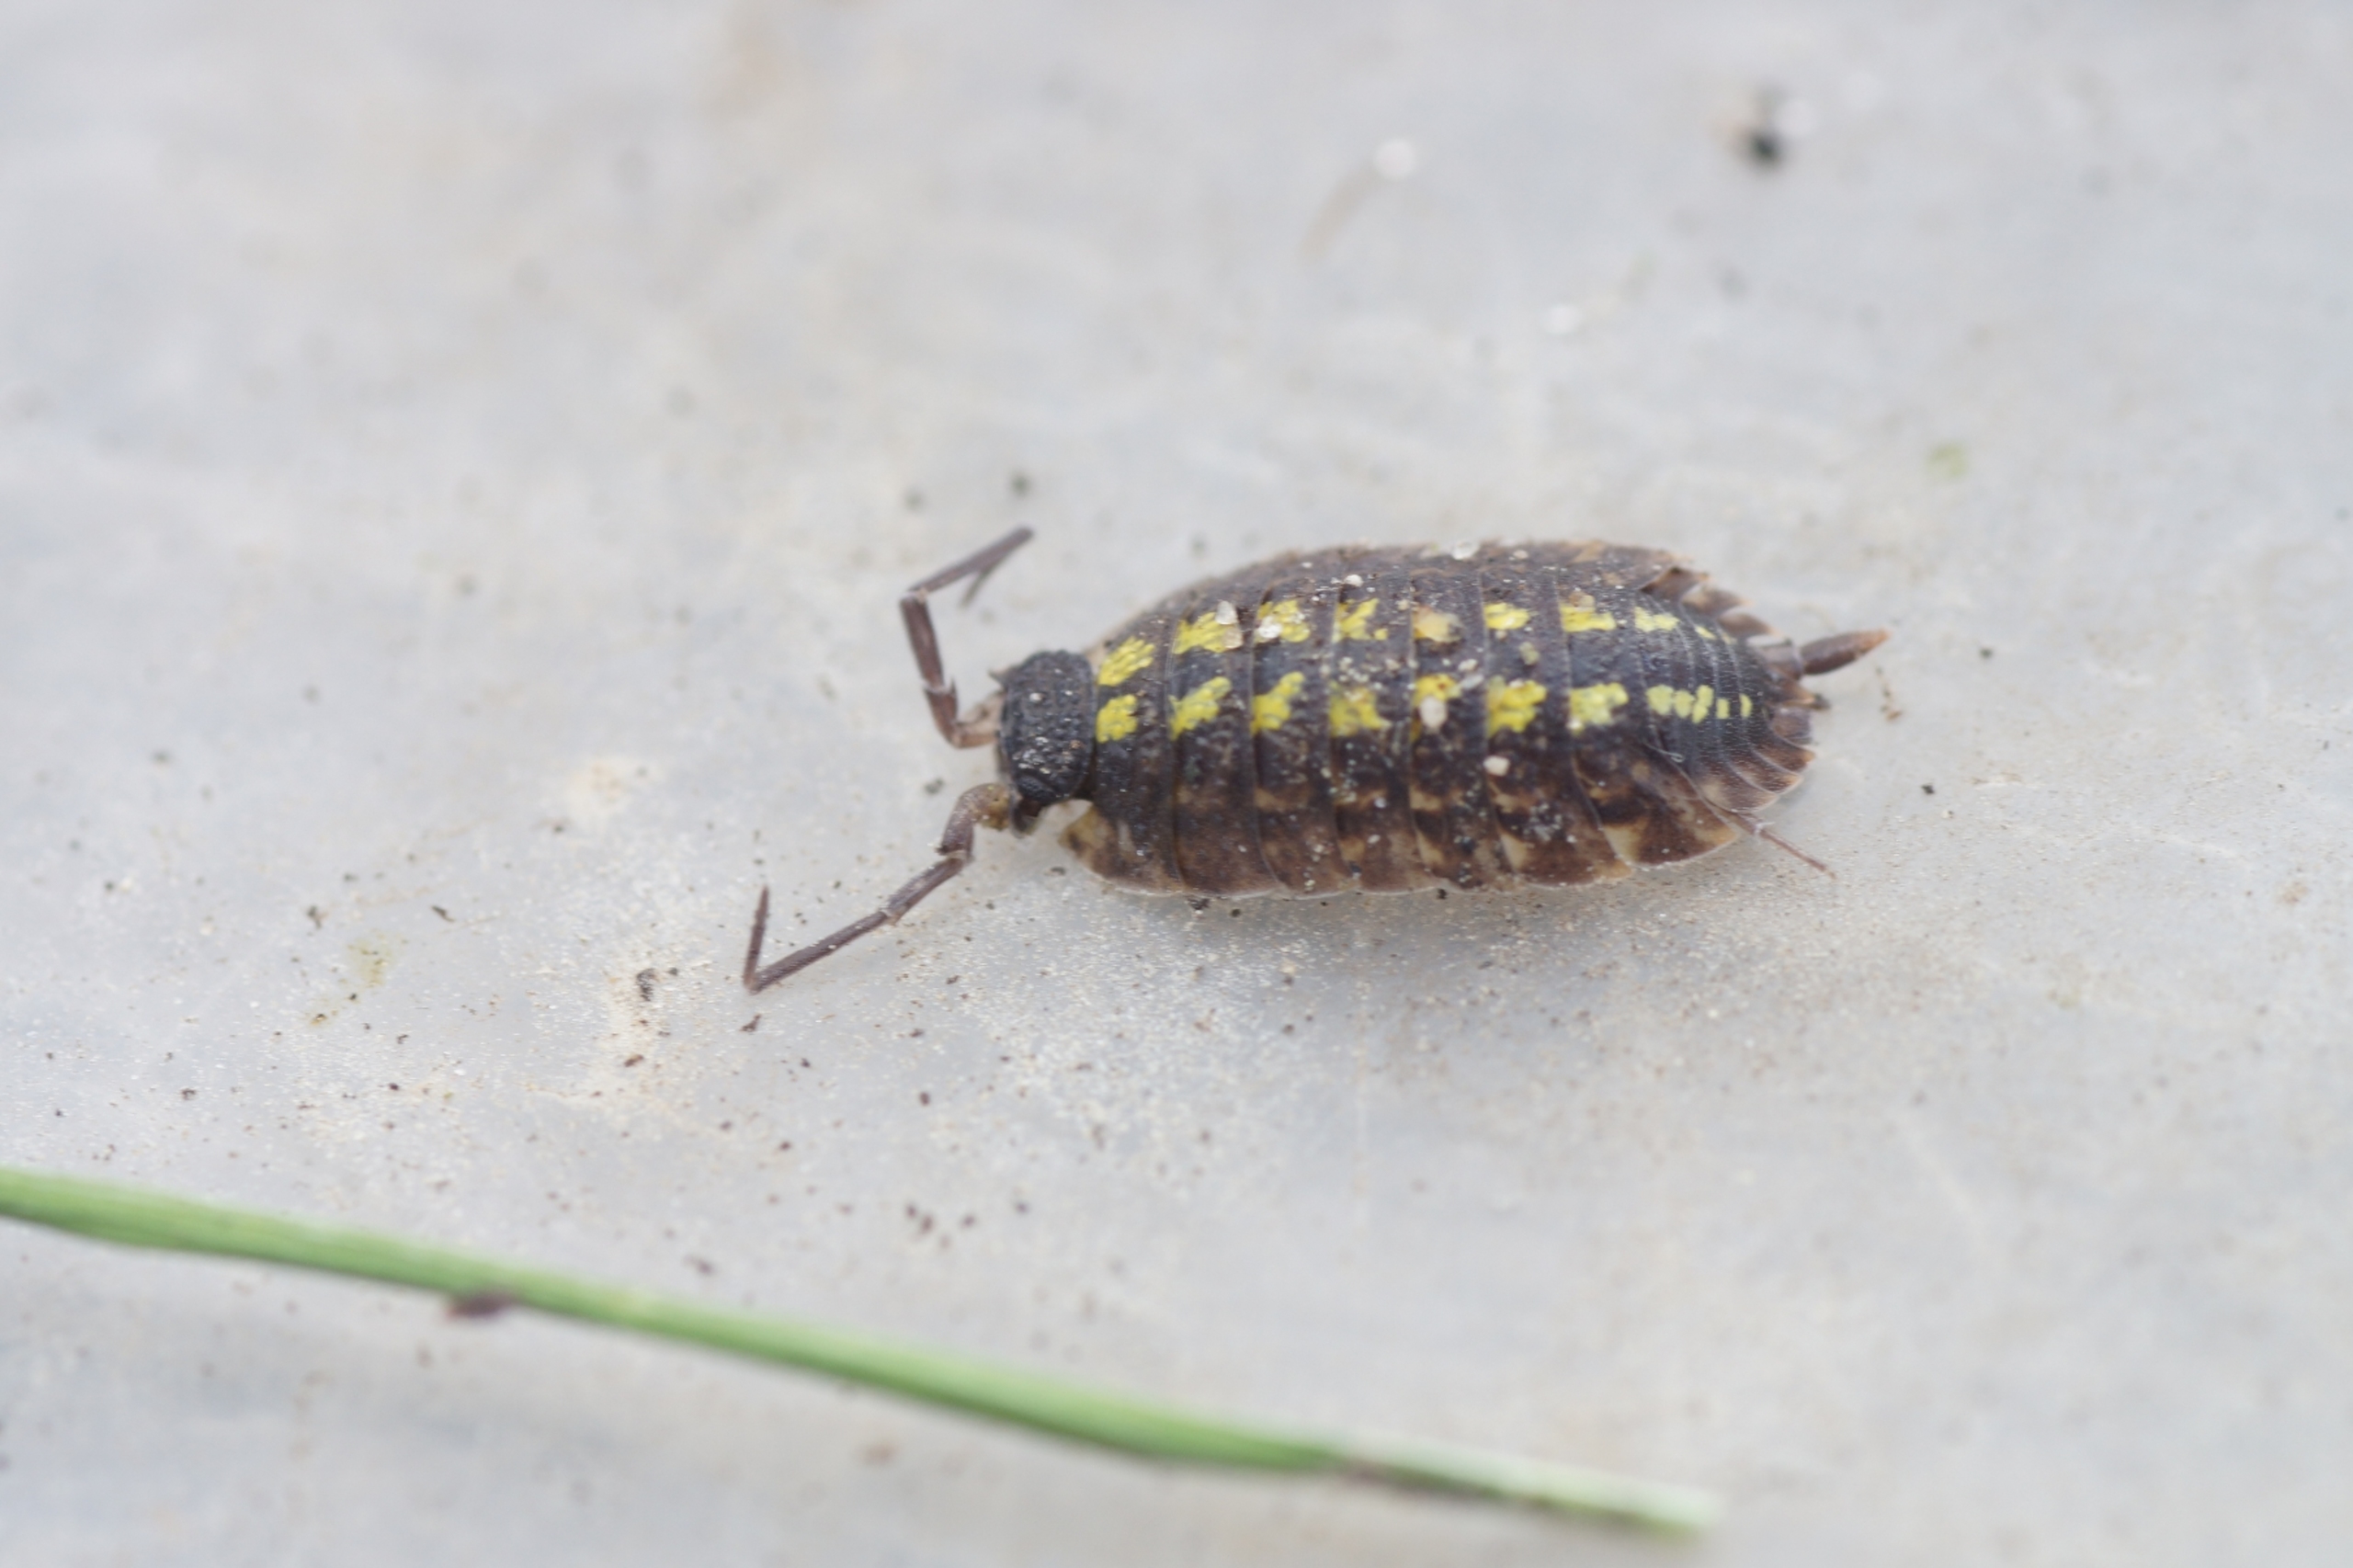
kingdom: Animalia
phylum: Arthropoda
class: Malacostraca
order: Isopoda
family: Porcellionidae
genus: Porcellio
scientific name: Porcellio spinicornis
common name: Sorthovedet bænkebider
